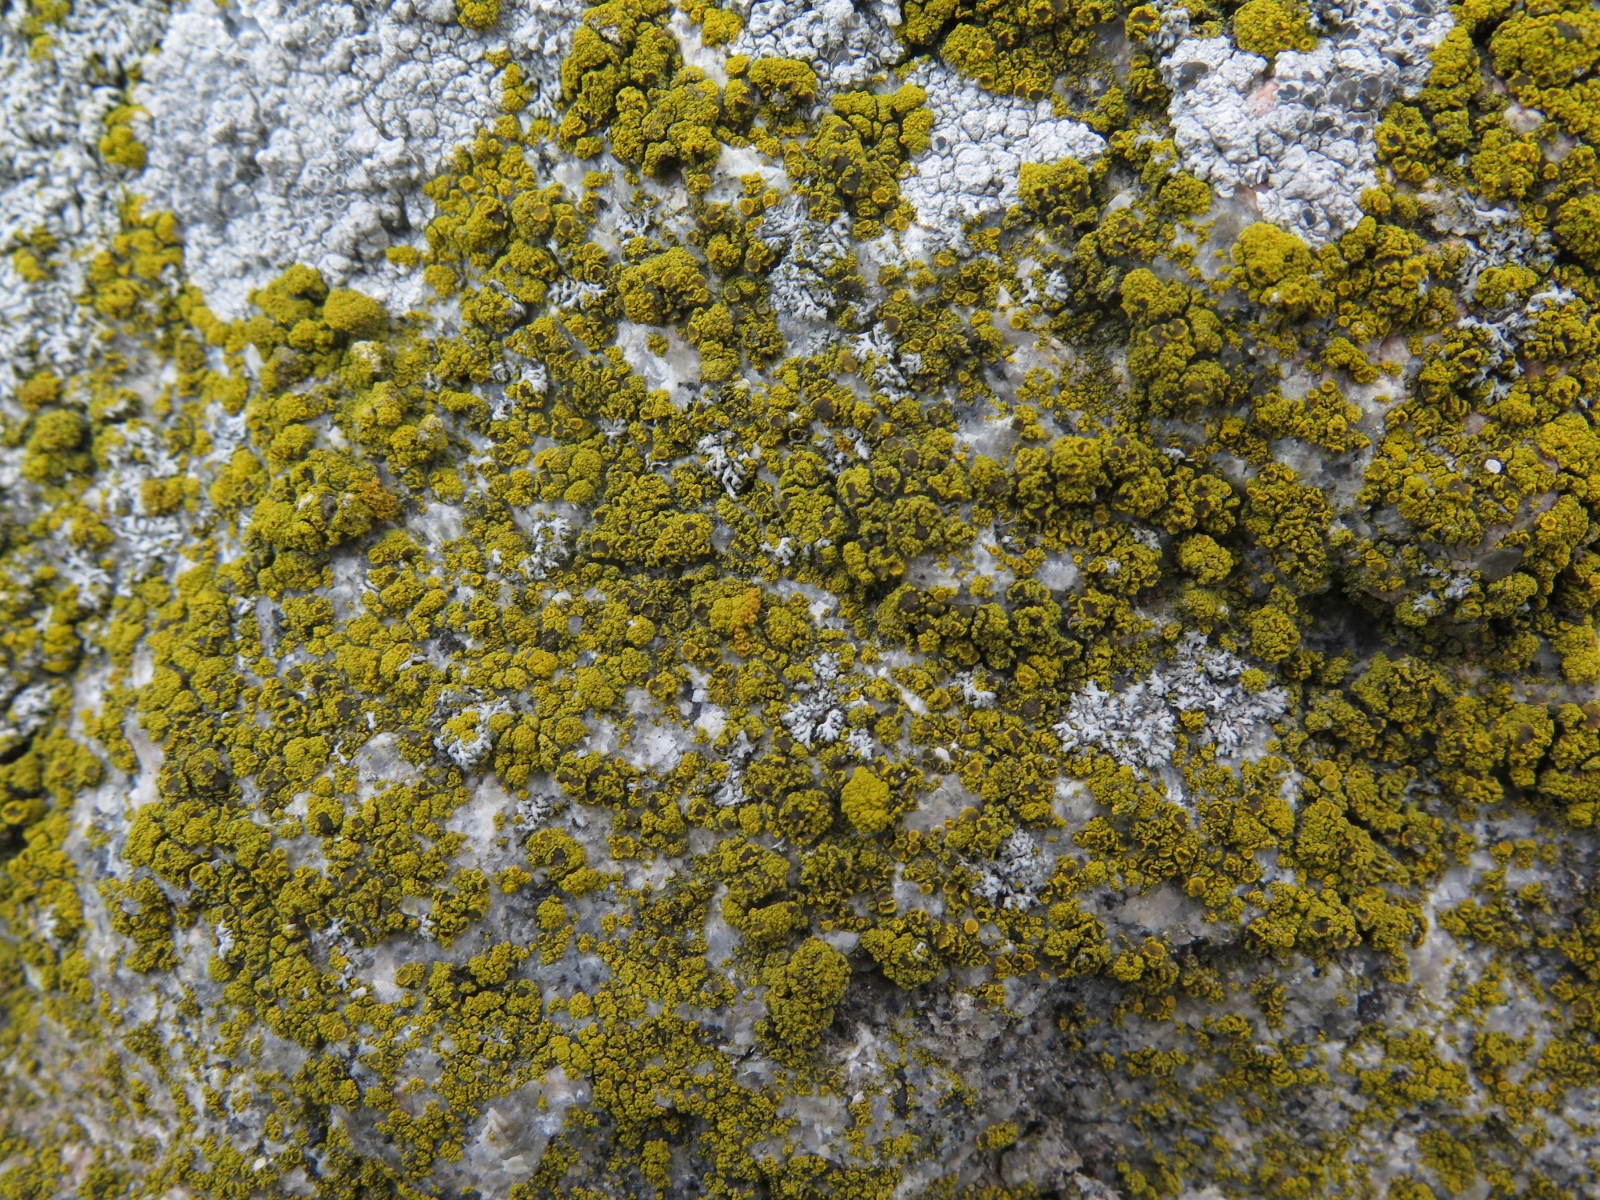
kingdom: Fungi
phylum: Ascomycota
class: Candelariomycetes
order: Candelariales
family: Candelariaceae
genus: Candelariella
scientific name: Candelariella vitellina
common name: almindelig æggeblommelav
